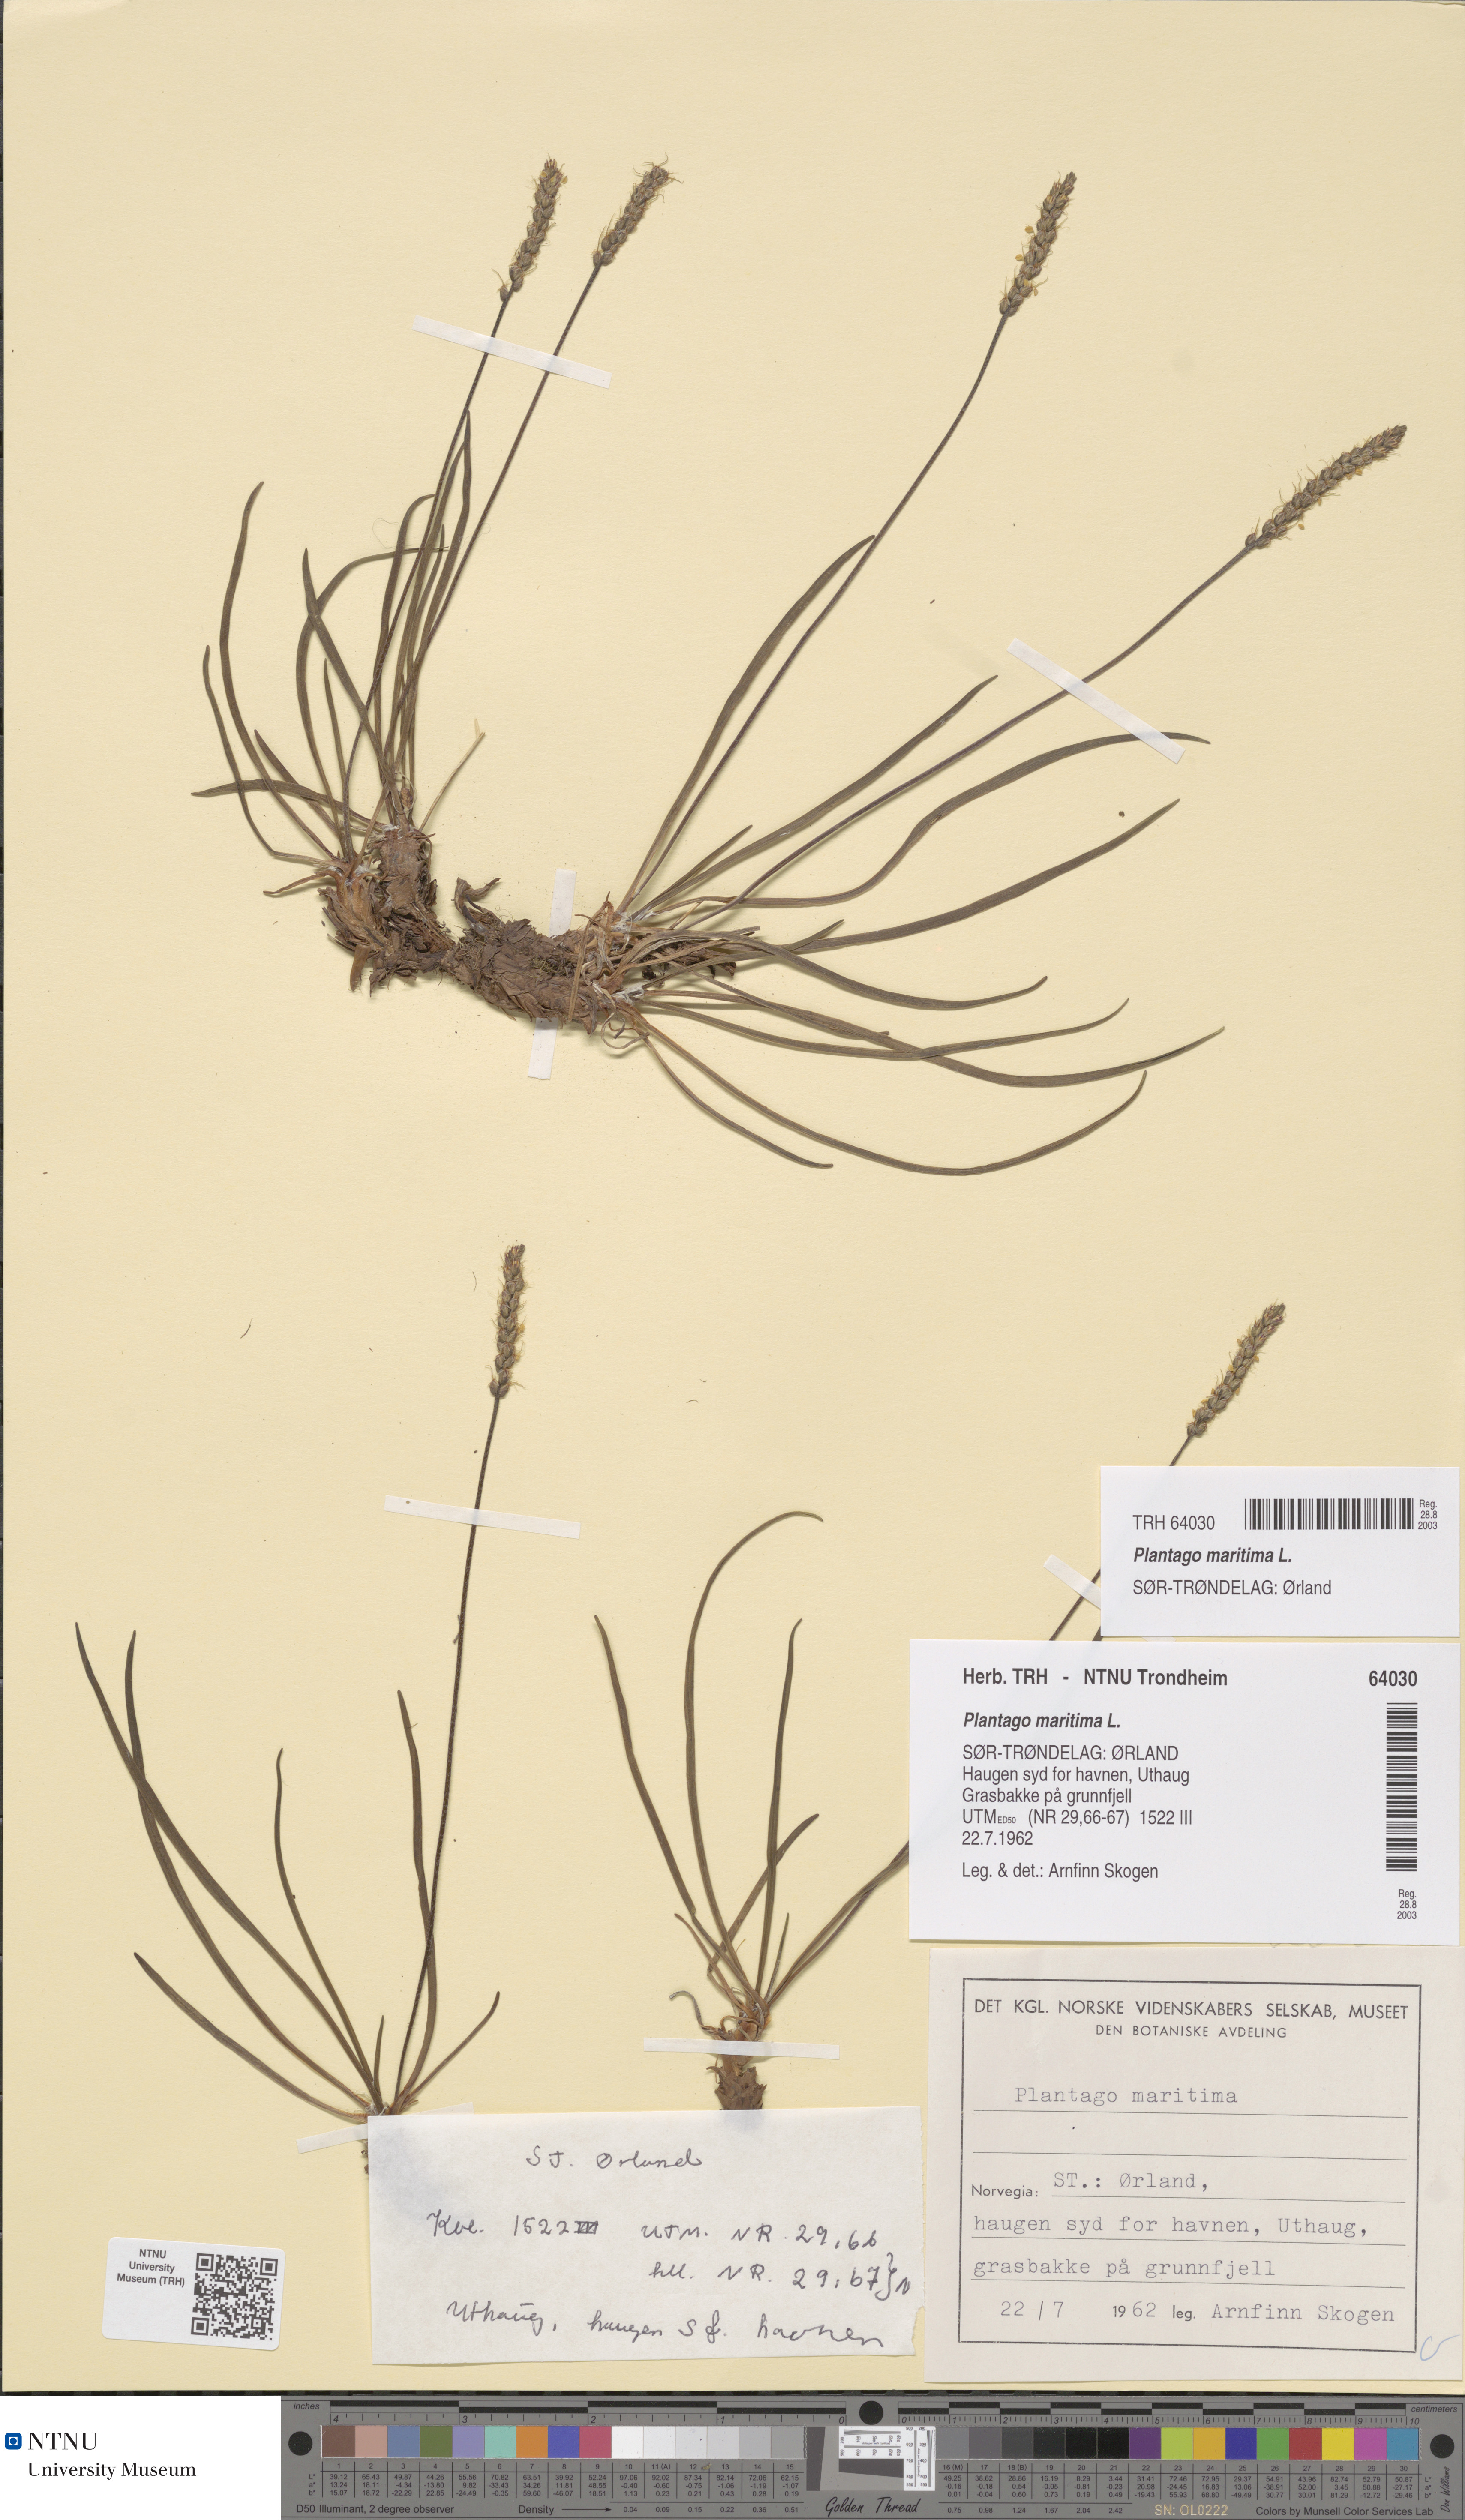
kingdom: Plantae
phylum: Tracheophyta
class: Magnoliopsida
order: Lamiales
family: Plantaginaceae
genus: Plantago
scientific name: Plantago maritima
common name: Sea plantain
